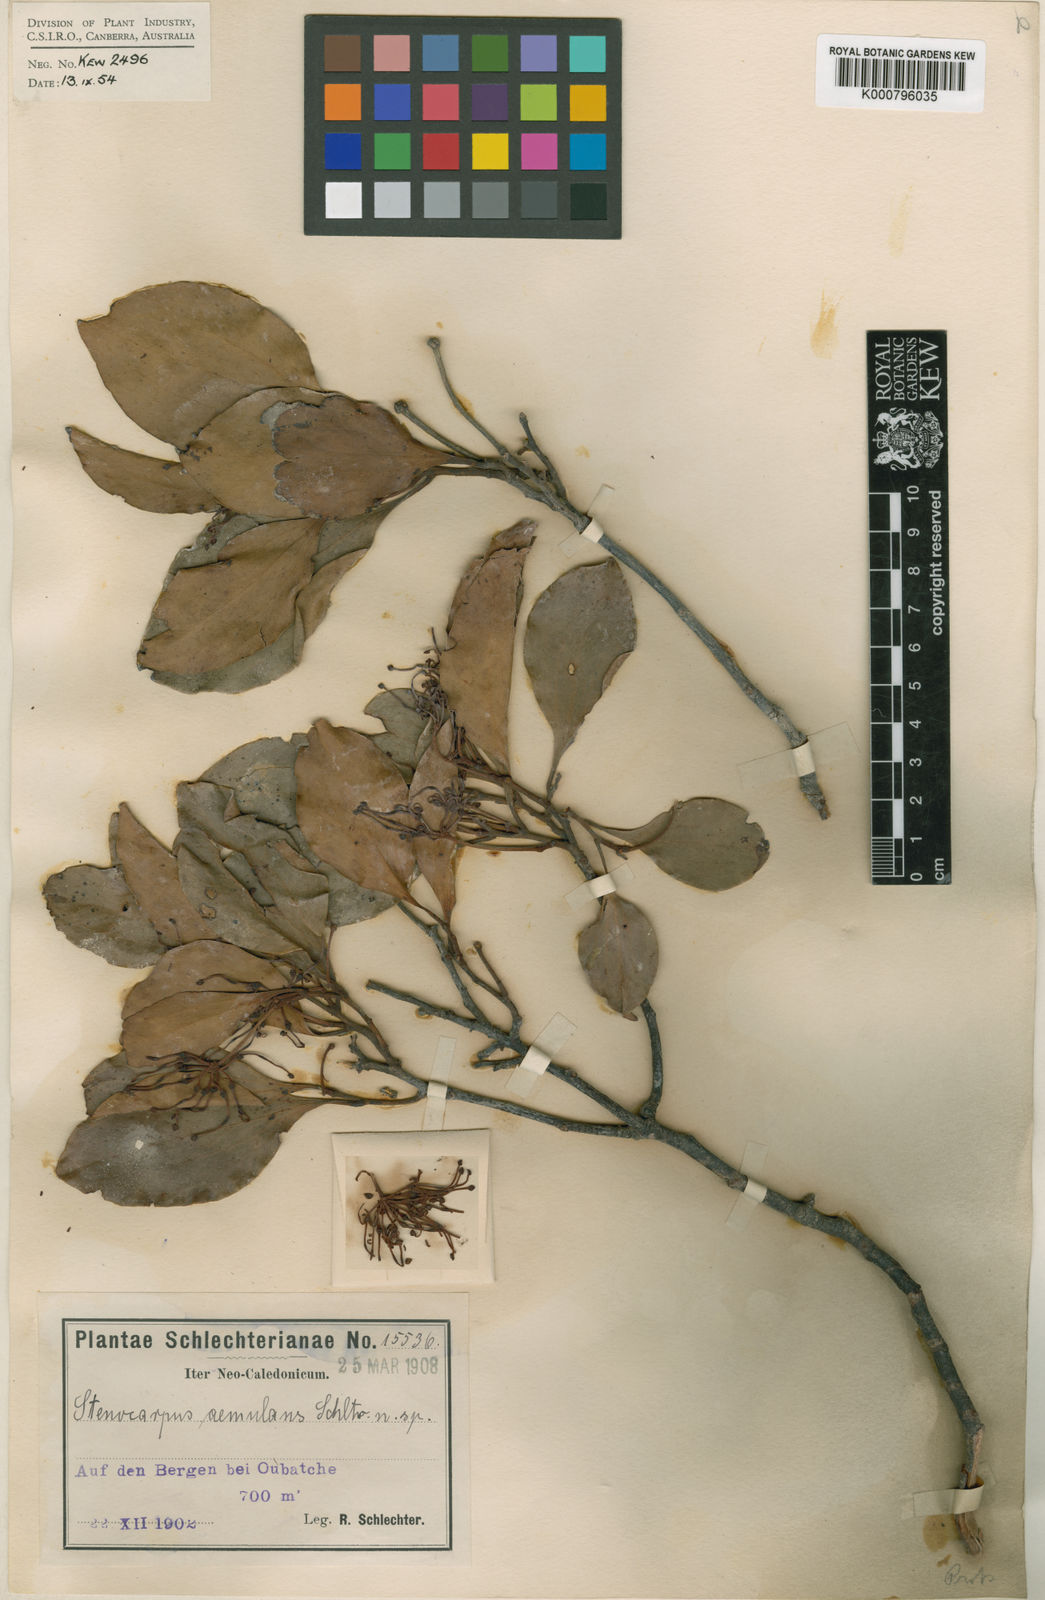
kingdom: Plantae
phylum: Tracheophyta
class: Magnoliopsida
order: Proteales
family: Proteaceae
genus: Stenocarpus
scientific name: Stenocarpus trinervis
